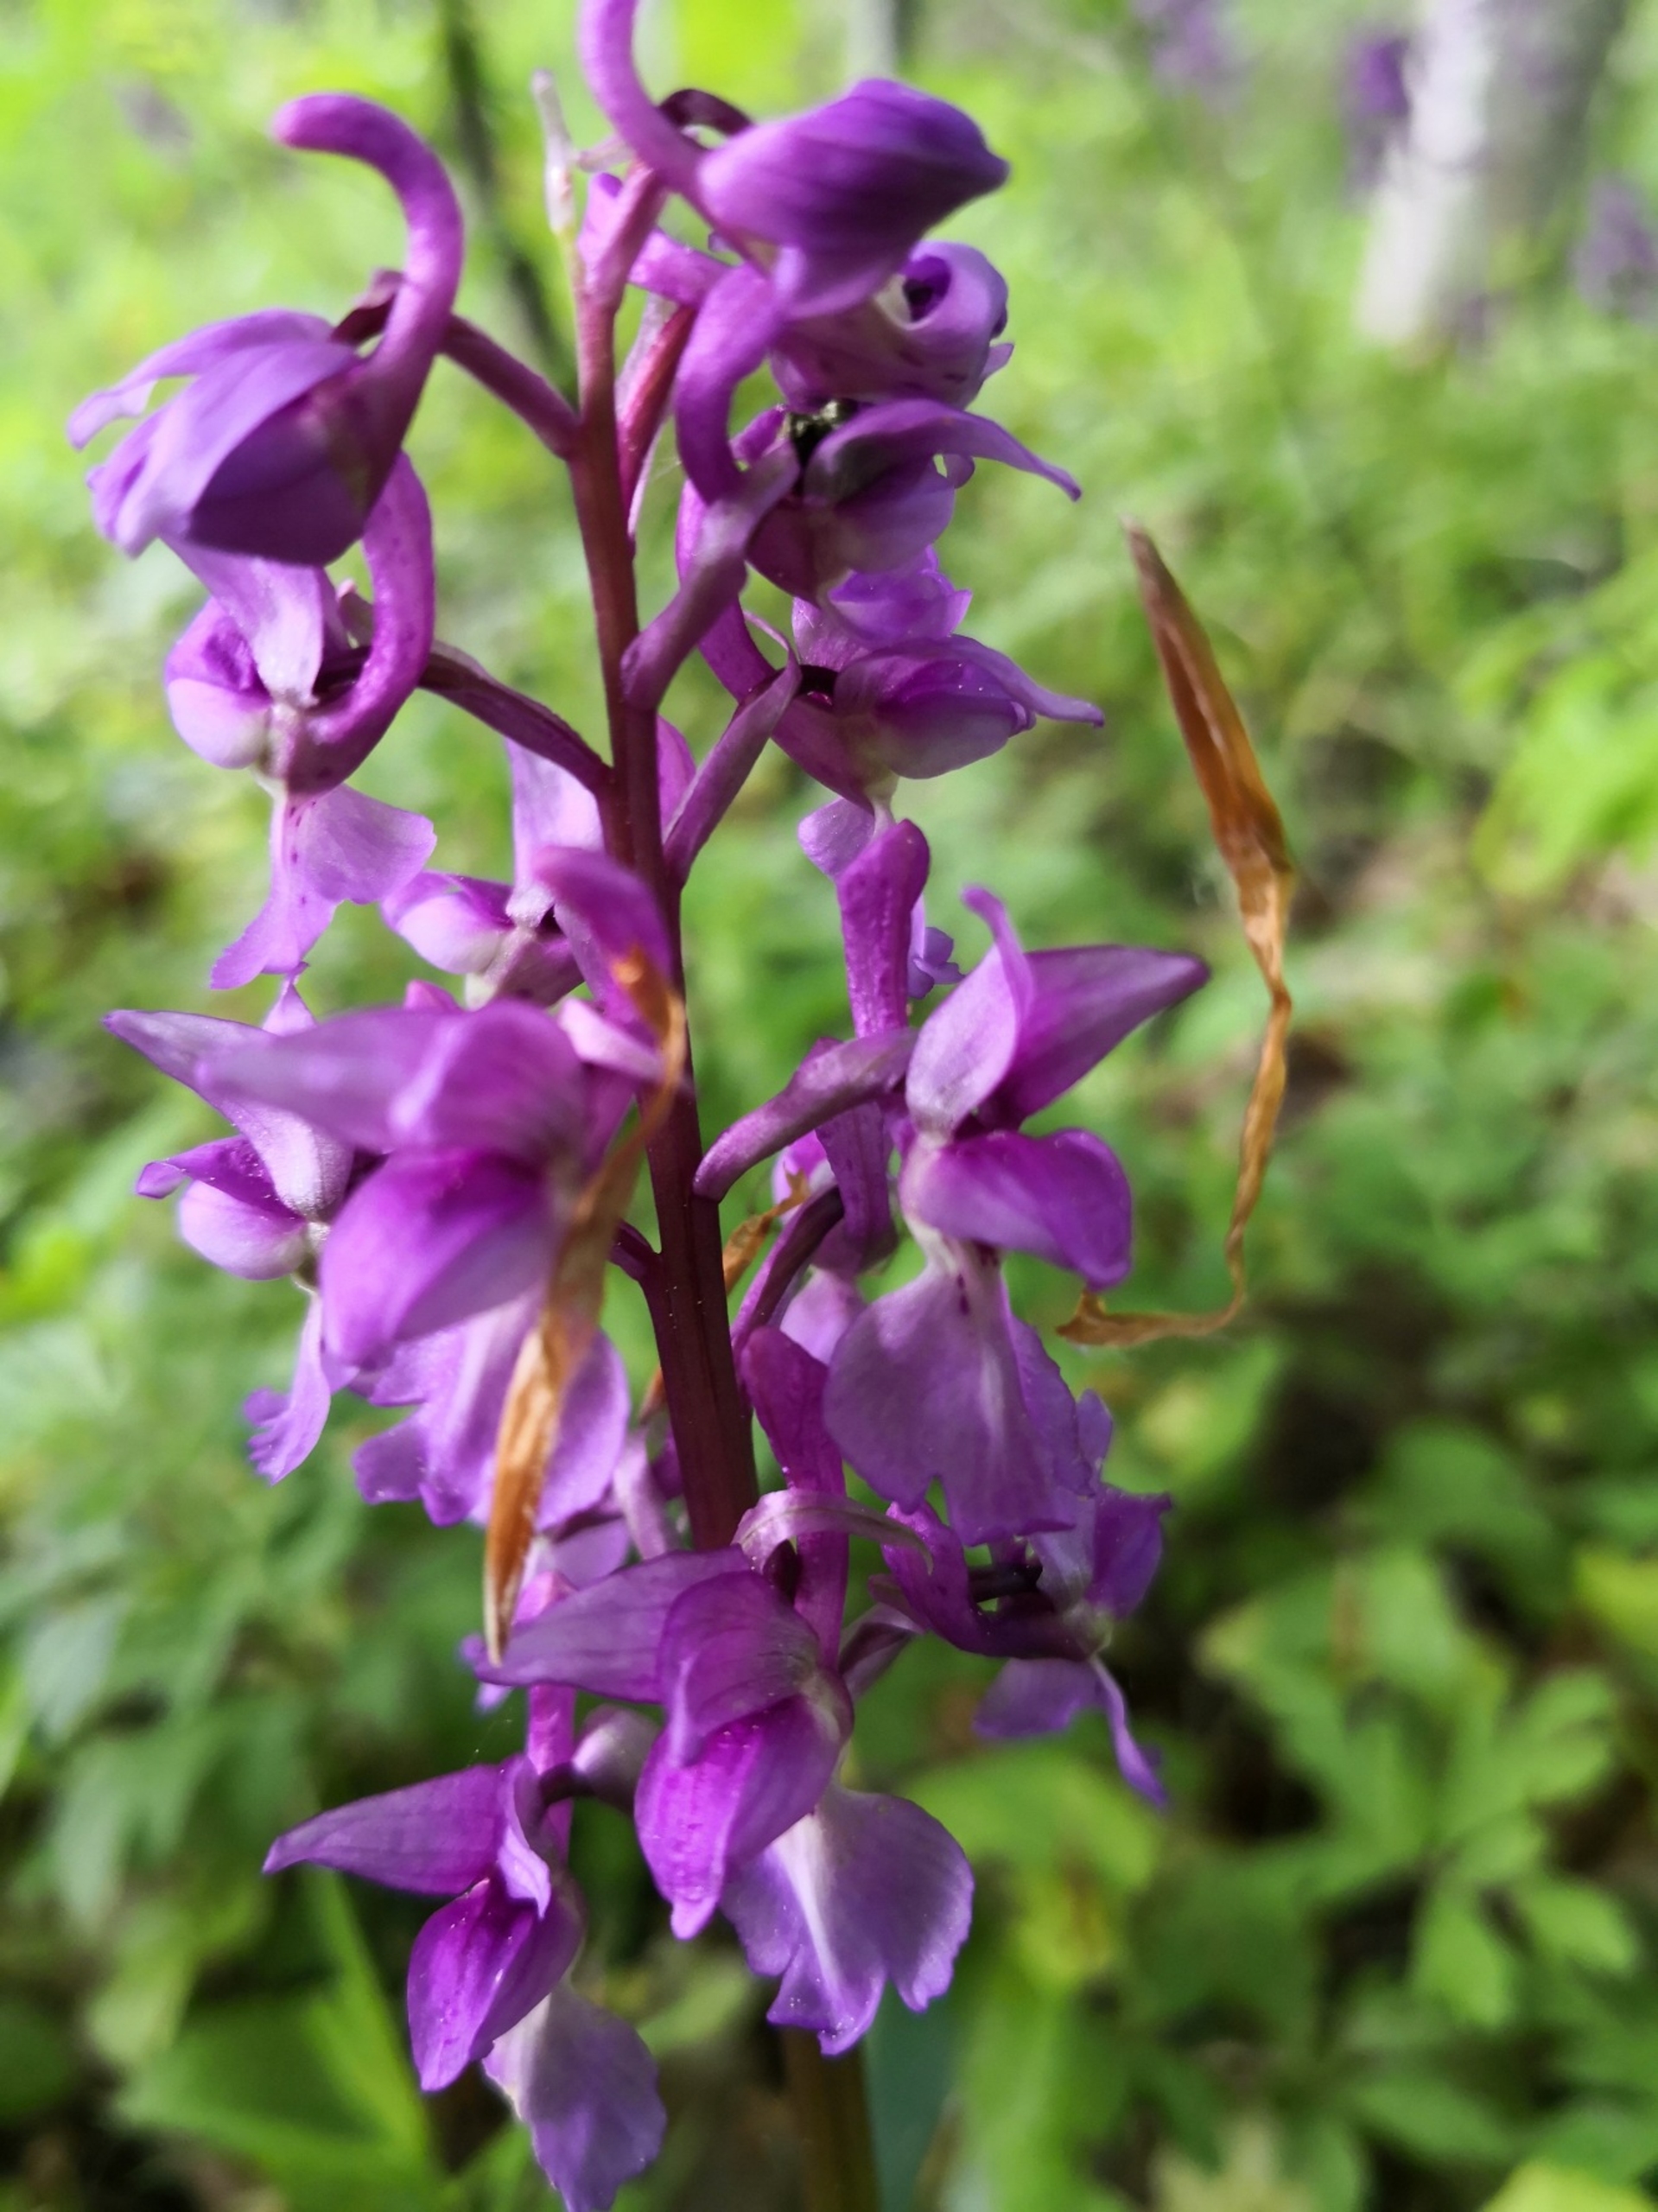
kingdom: Plantae
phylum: Tracheophyta
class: Liliopsida
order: Asparagales
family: Orchidaceae
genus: Orchis
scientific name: Orchis mascula
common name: Tyndakset gøgeurt
